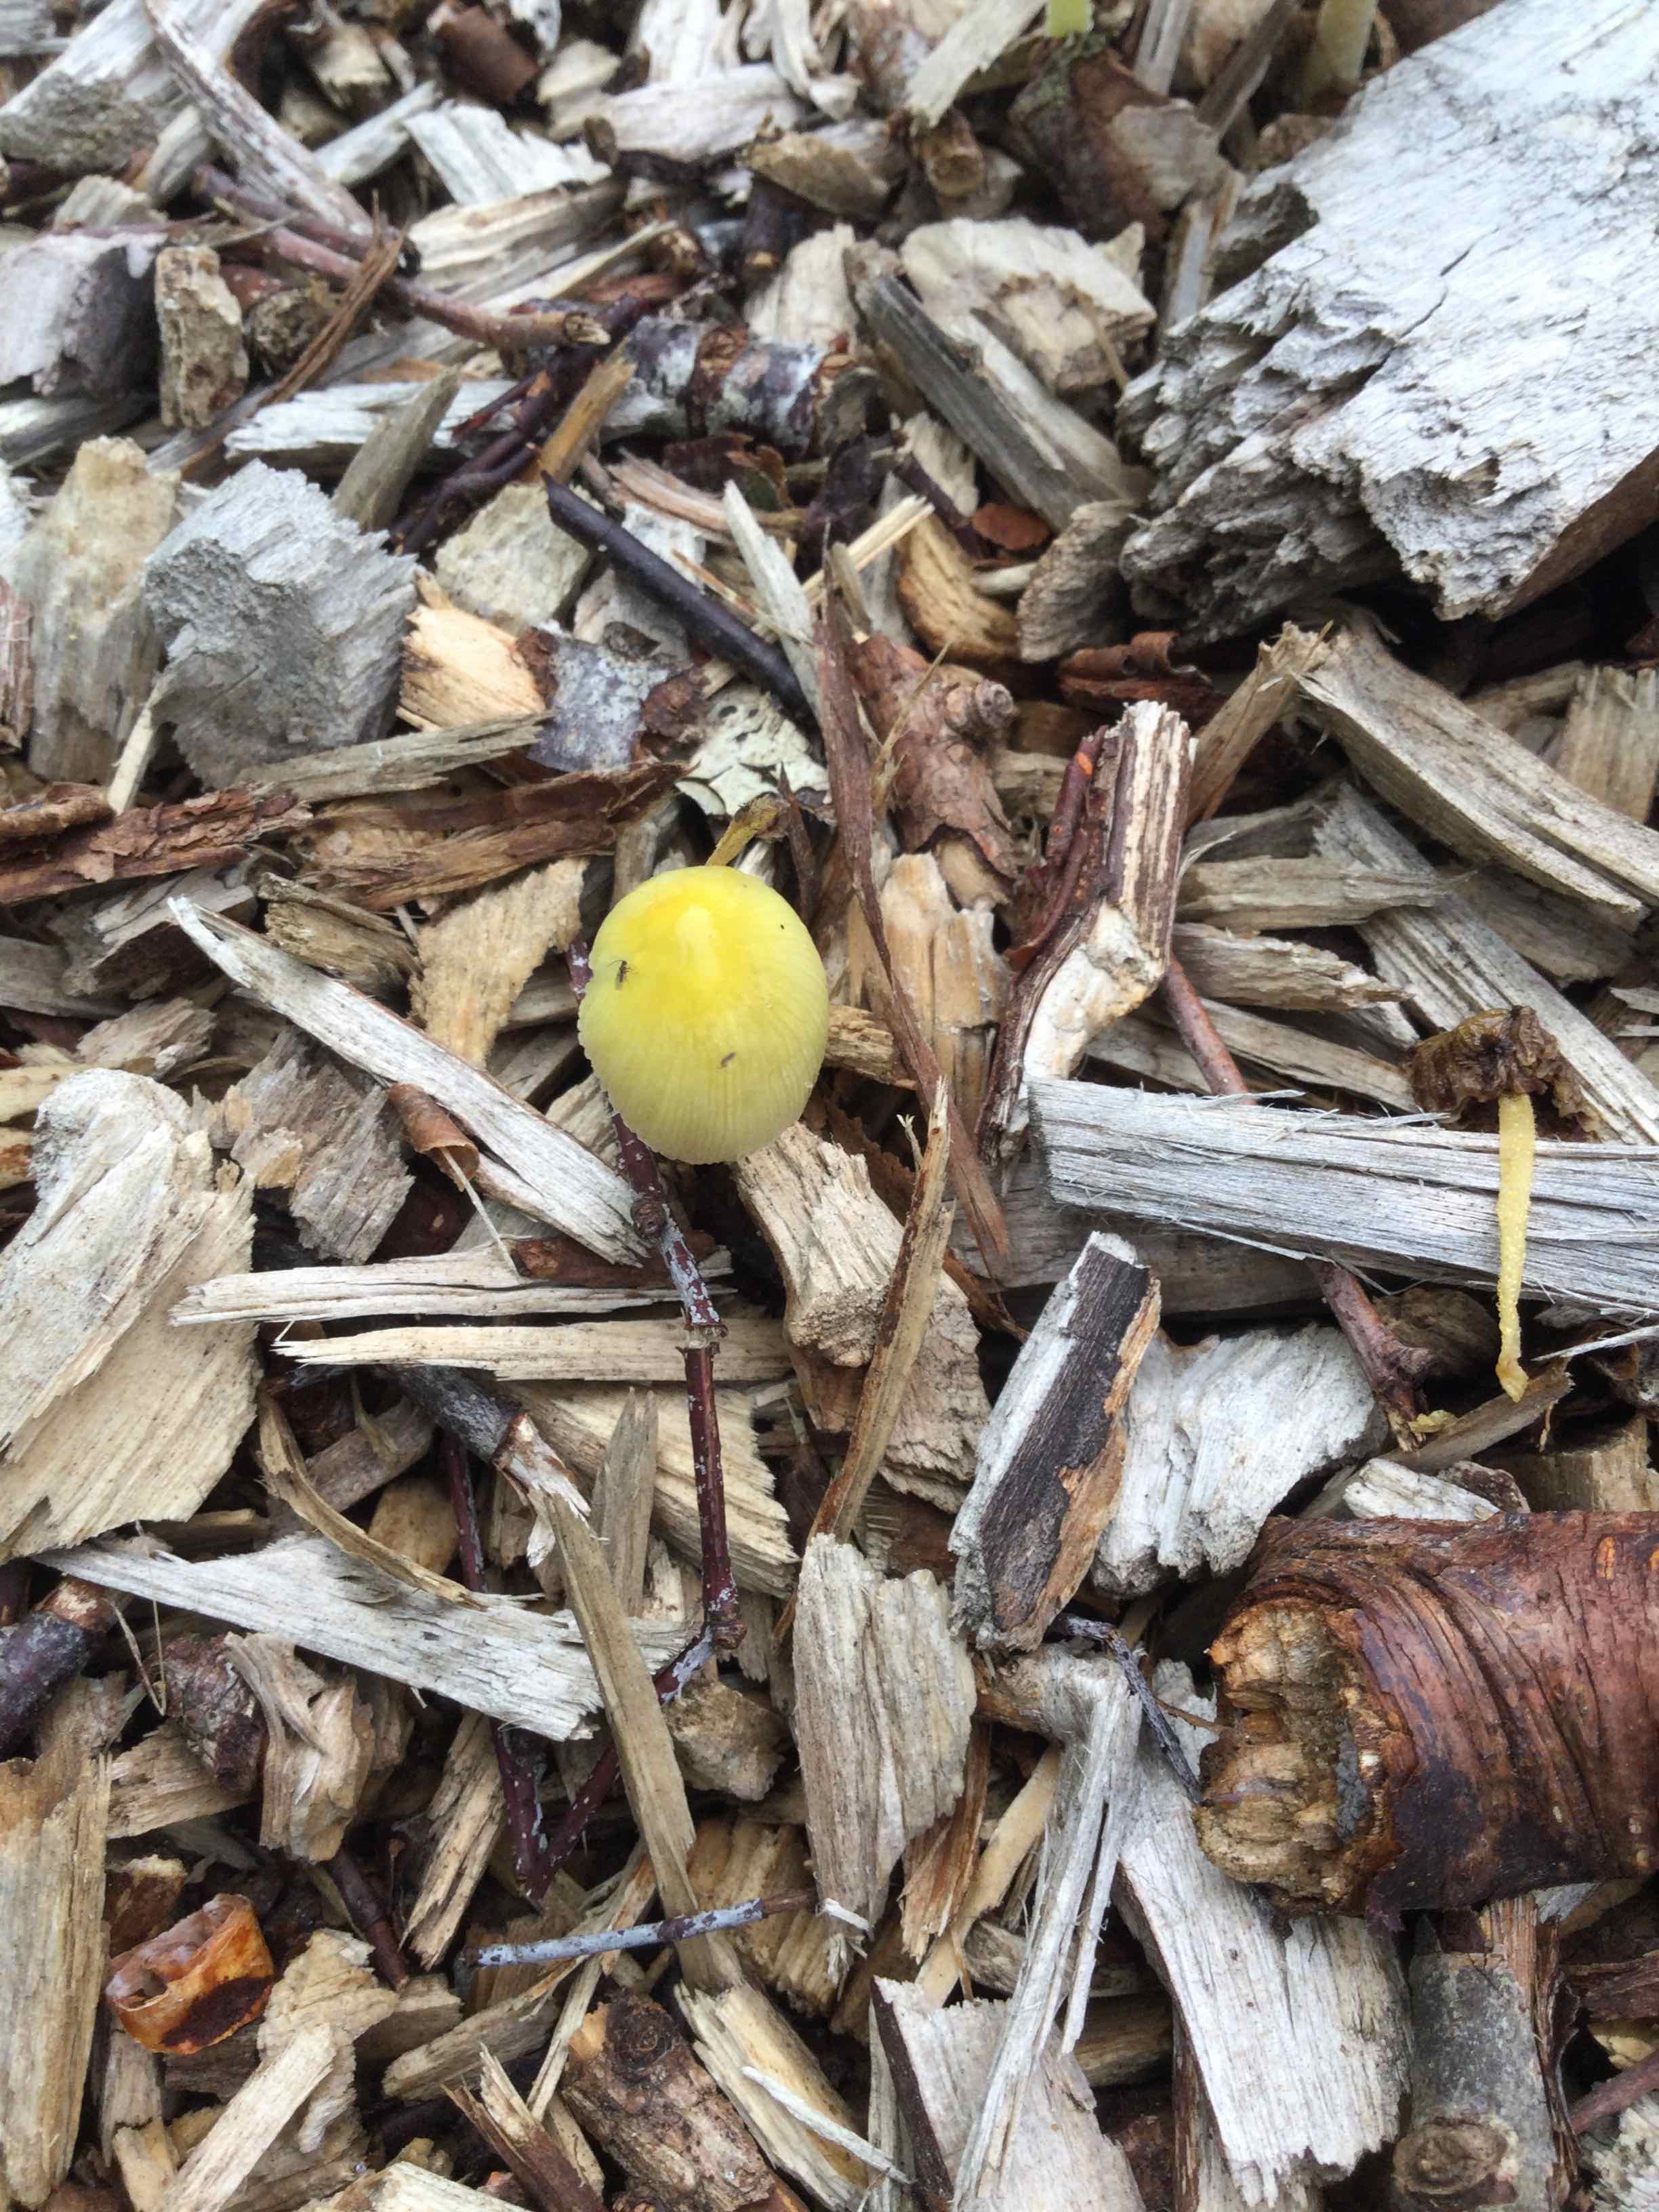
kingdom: Fungi
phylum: Basidiomycota
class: Agaricomycetes
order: Agaricales
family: Bolbitiaceae
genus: Bolbitius
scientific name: Bolbitius titubans
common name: almindelig gulhat
